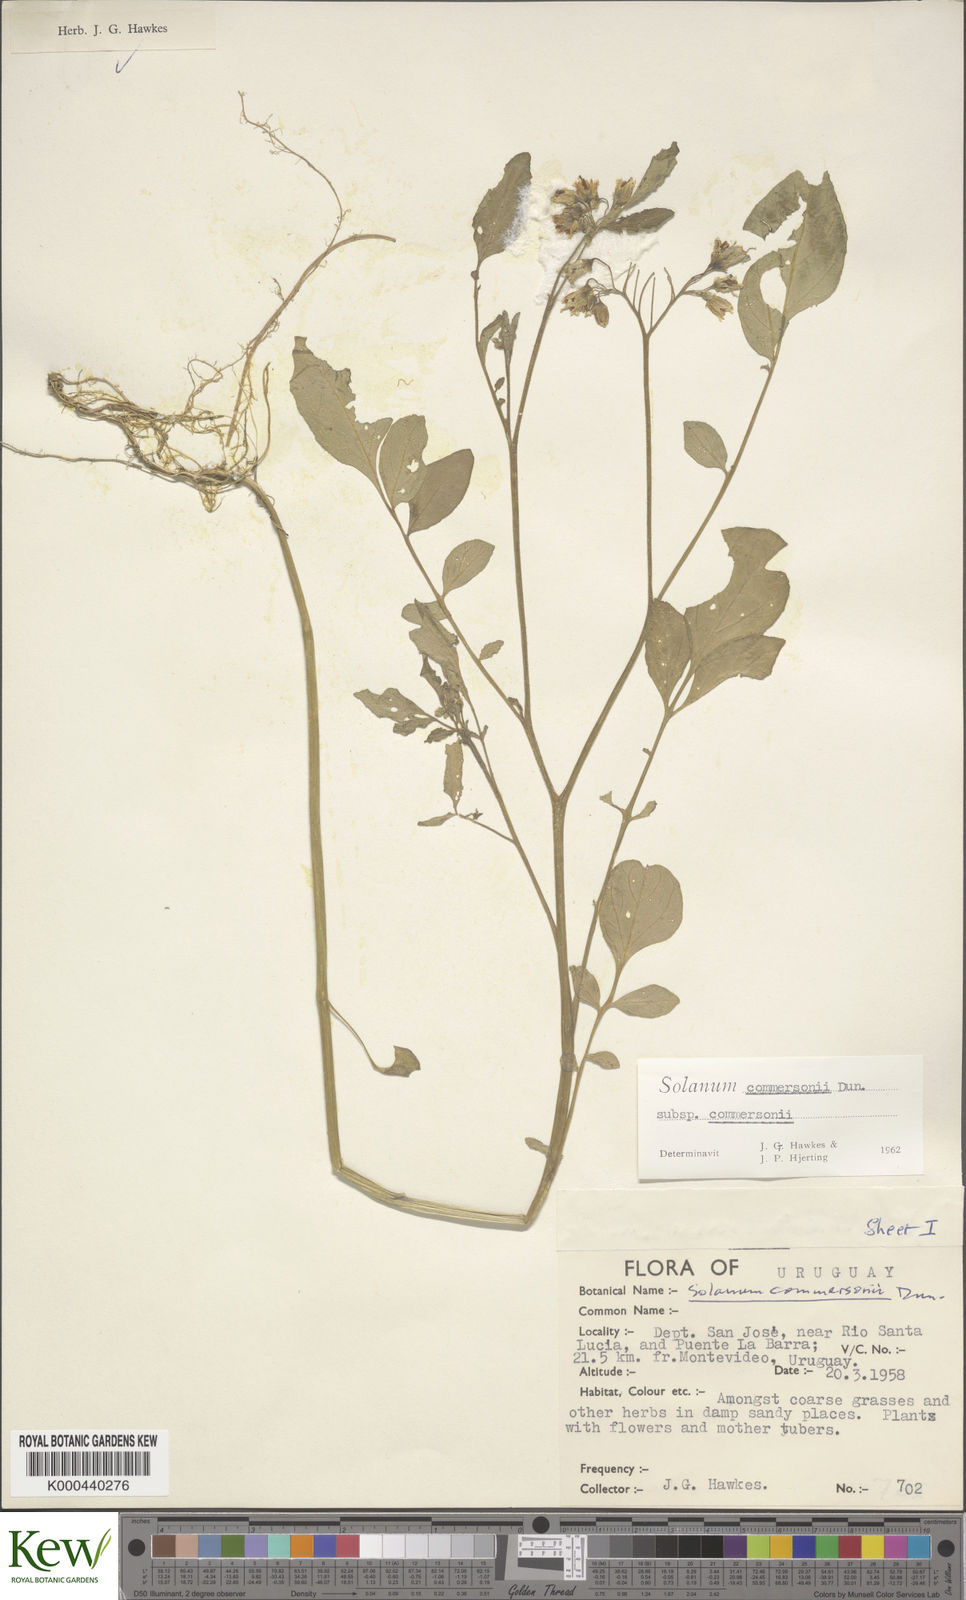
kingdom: Plantae
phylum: Tracheophyta
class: Magnoliopsida
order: Solanales
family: Solanaceae
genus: Solanum
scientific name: Solanum commersonii
